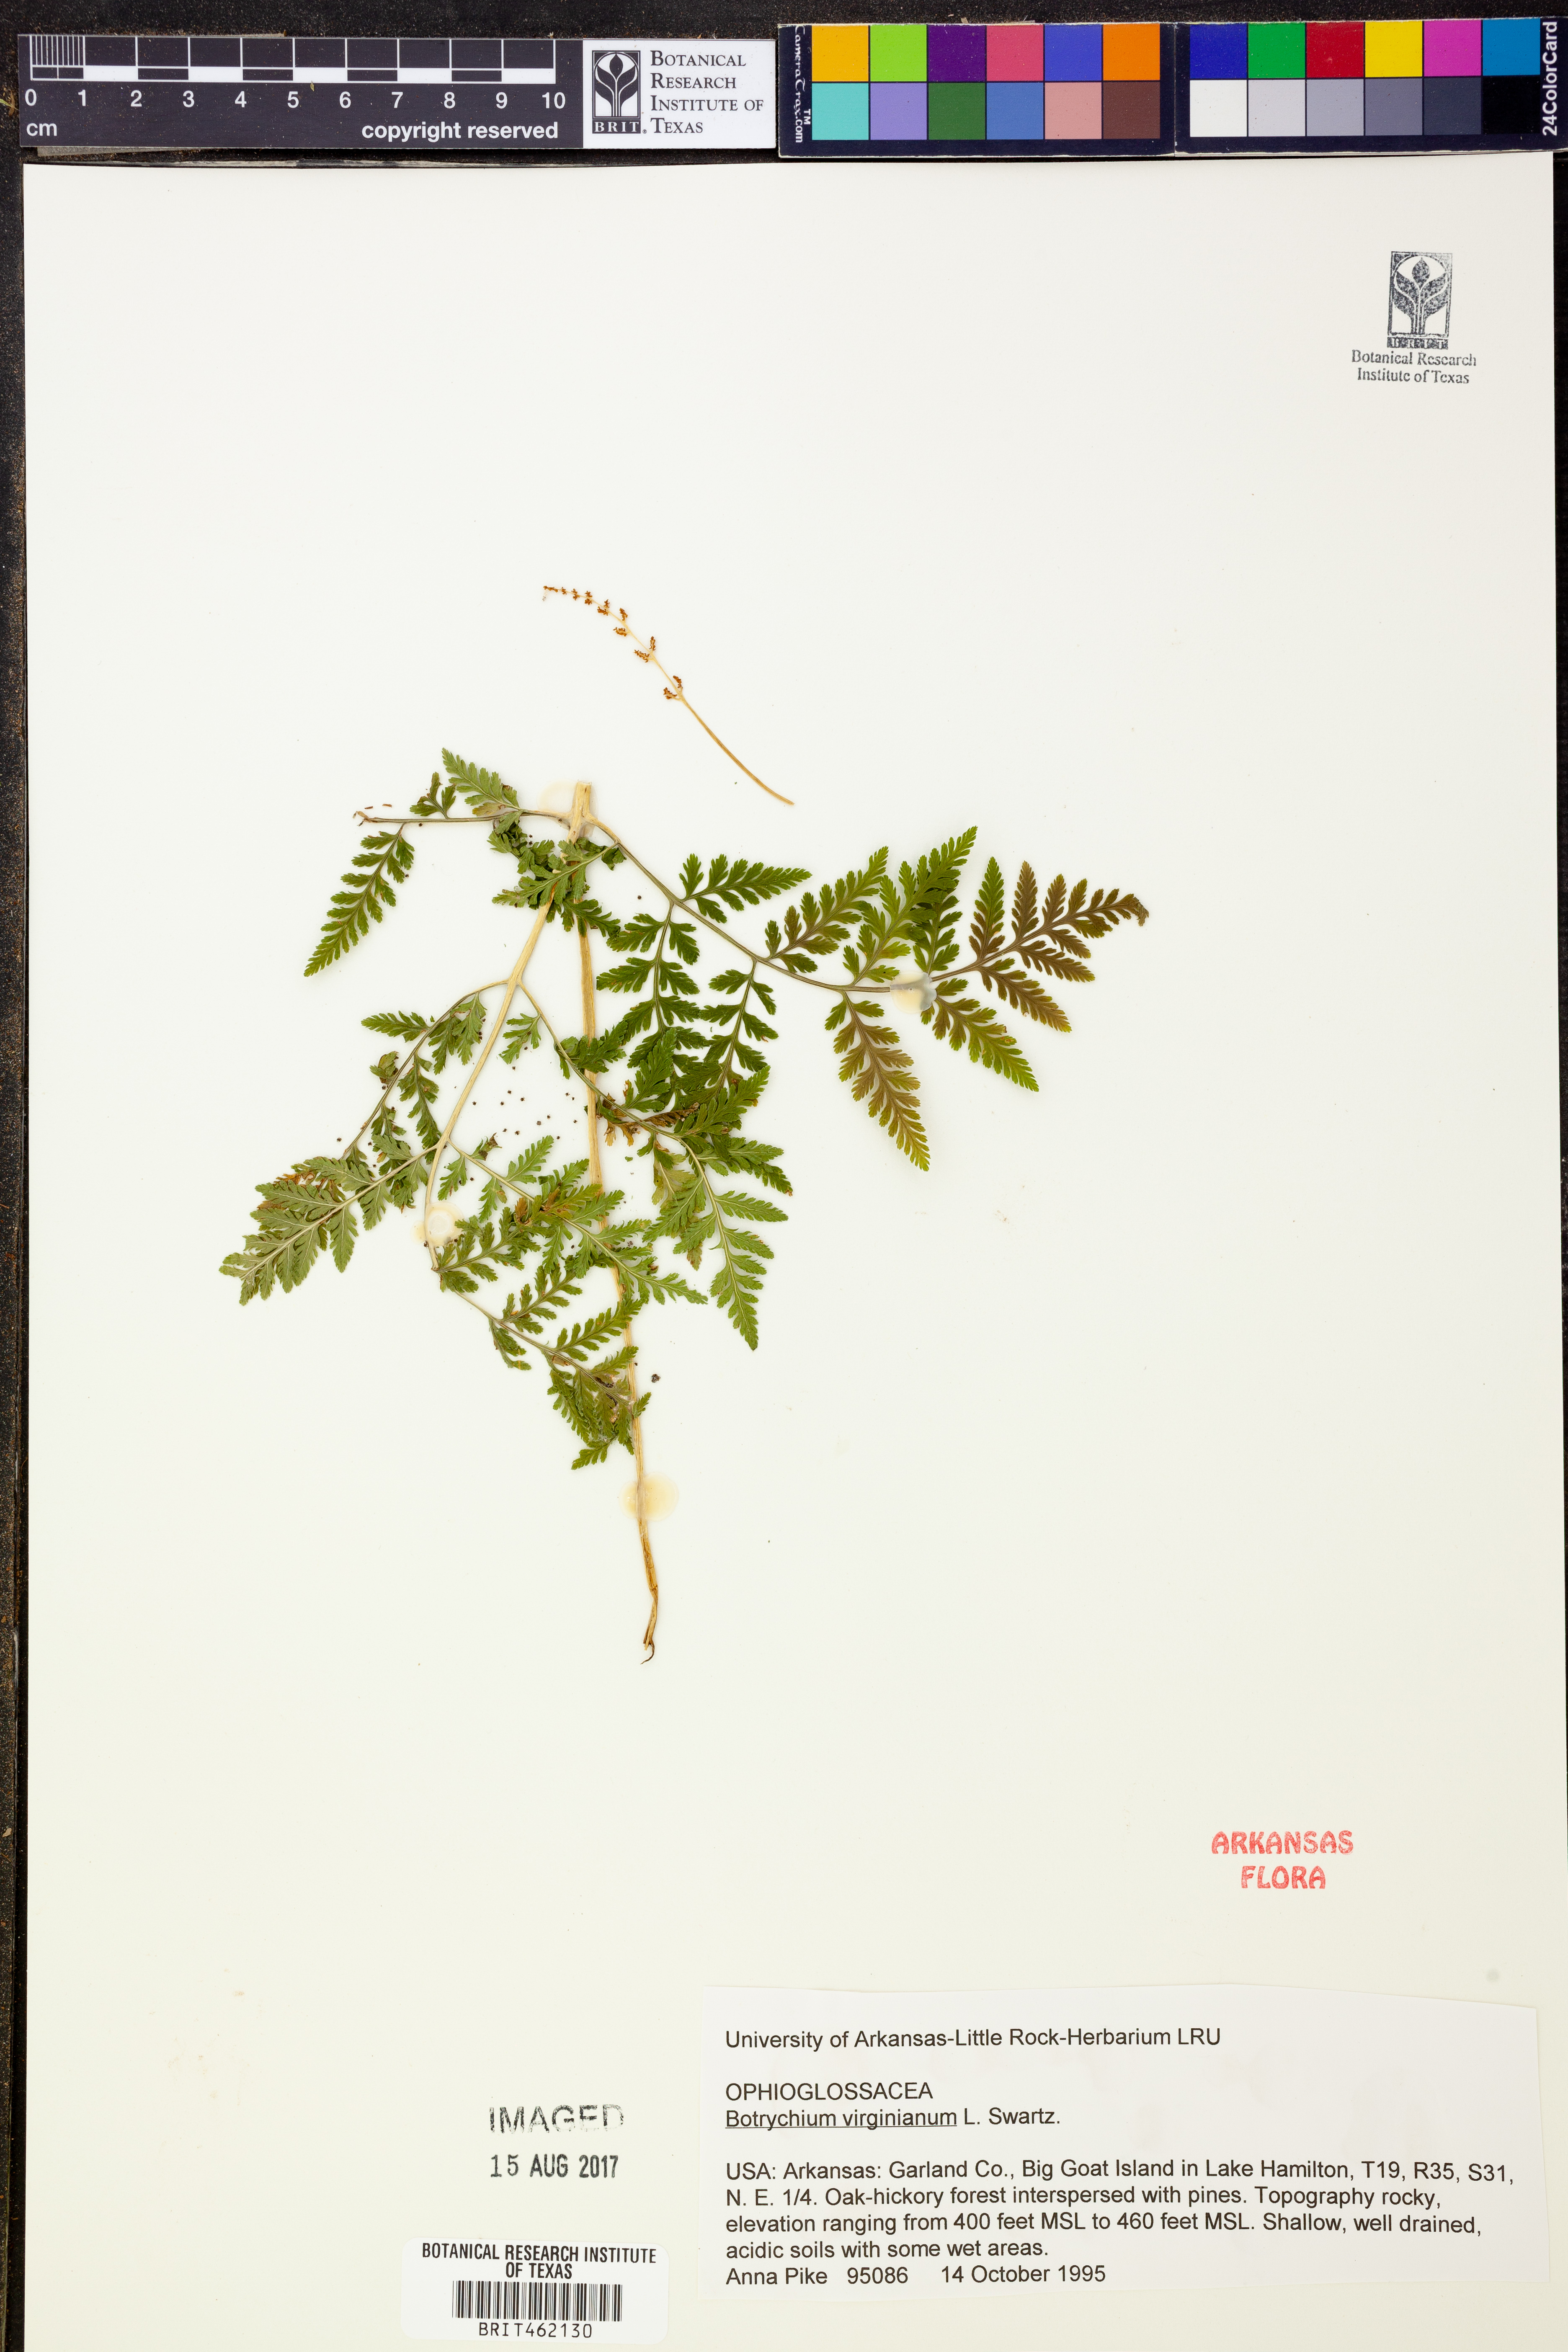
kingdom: Plantae
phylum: Tracheophyta
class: Polypodiopsida
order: Ophioglossales
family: Ophioglossaceae
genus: Botrypus
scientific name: Botrypus virginianus
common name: Common grapefern
